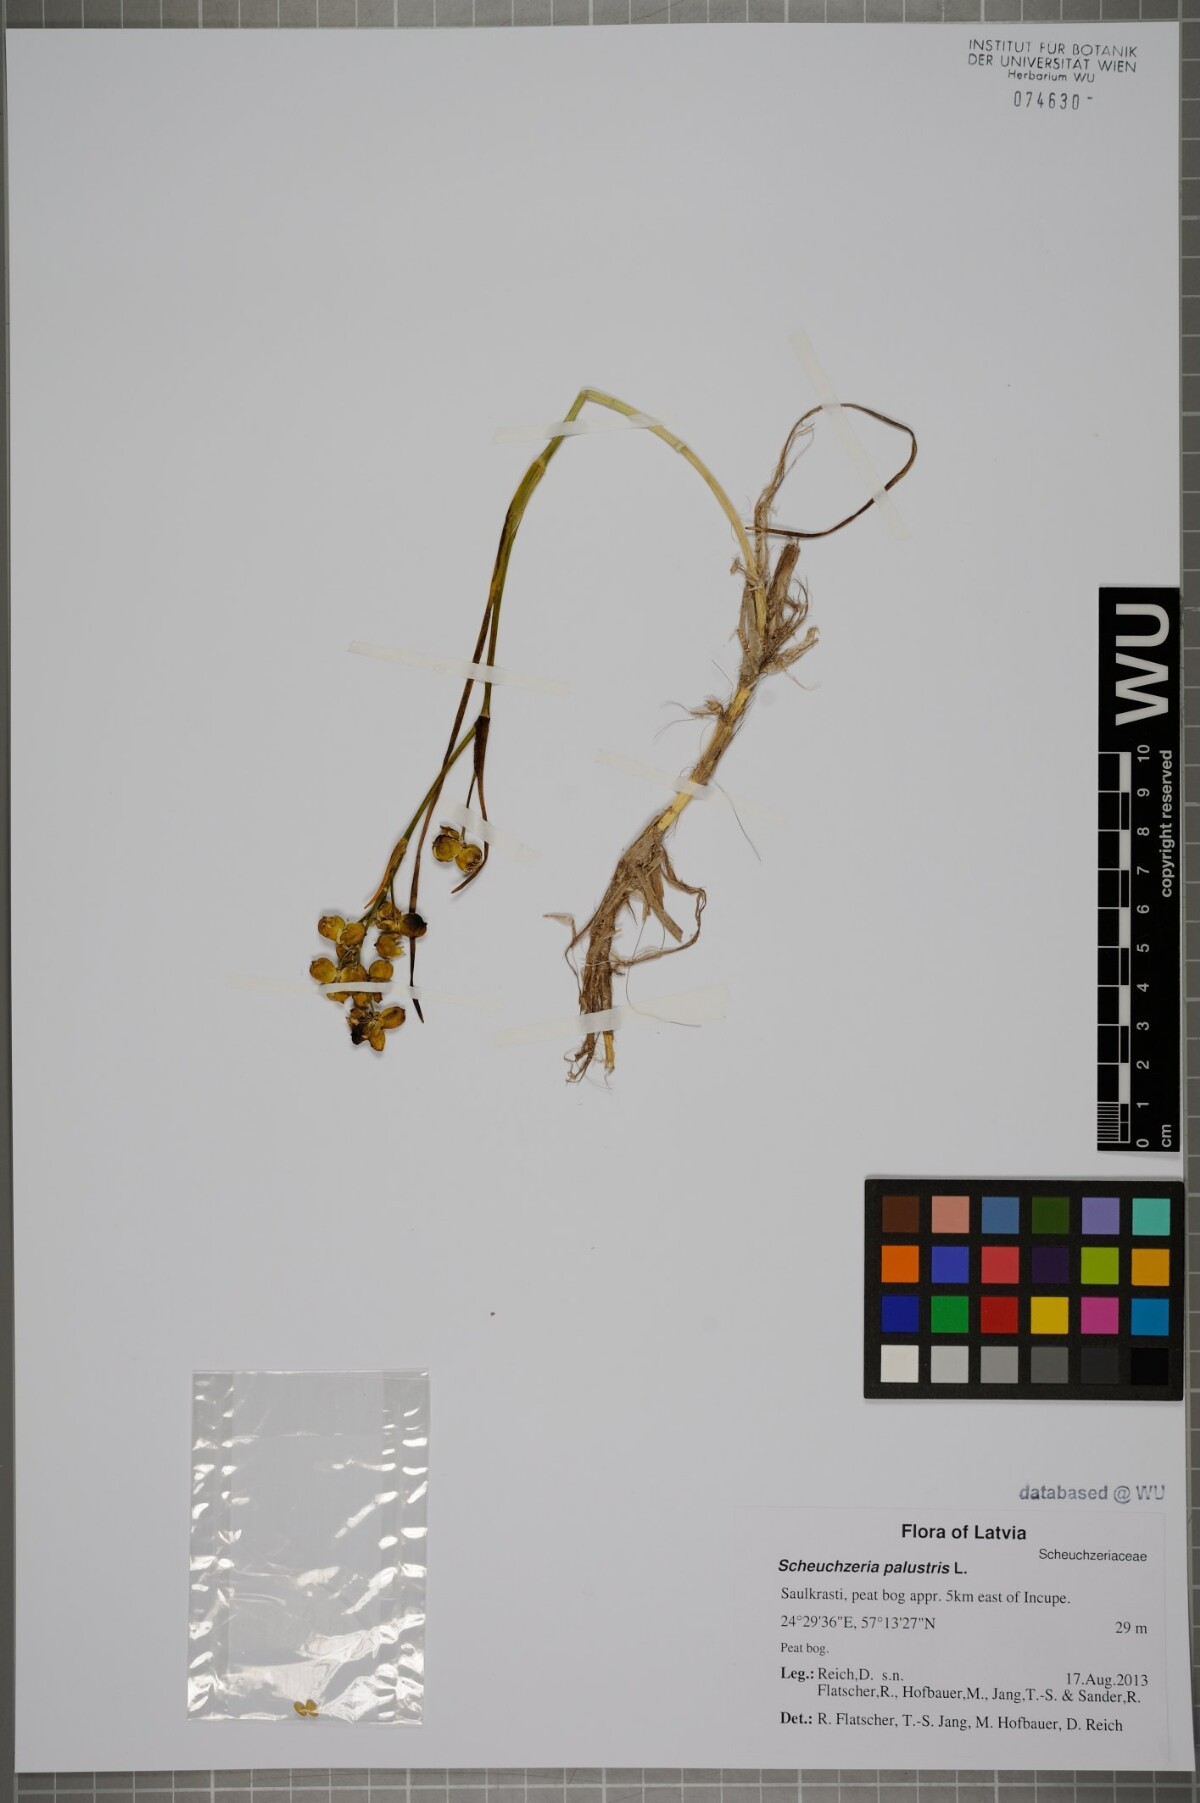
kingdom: Plantae
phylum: Tracheophyta
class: Liliopsida
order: Alismatales
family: Scheuchzeriaceae
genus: Scheuchzeria
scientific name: Scheuchzeria palustris
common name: Rannoch-rush
